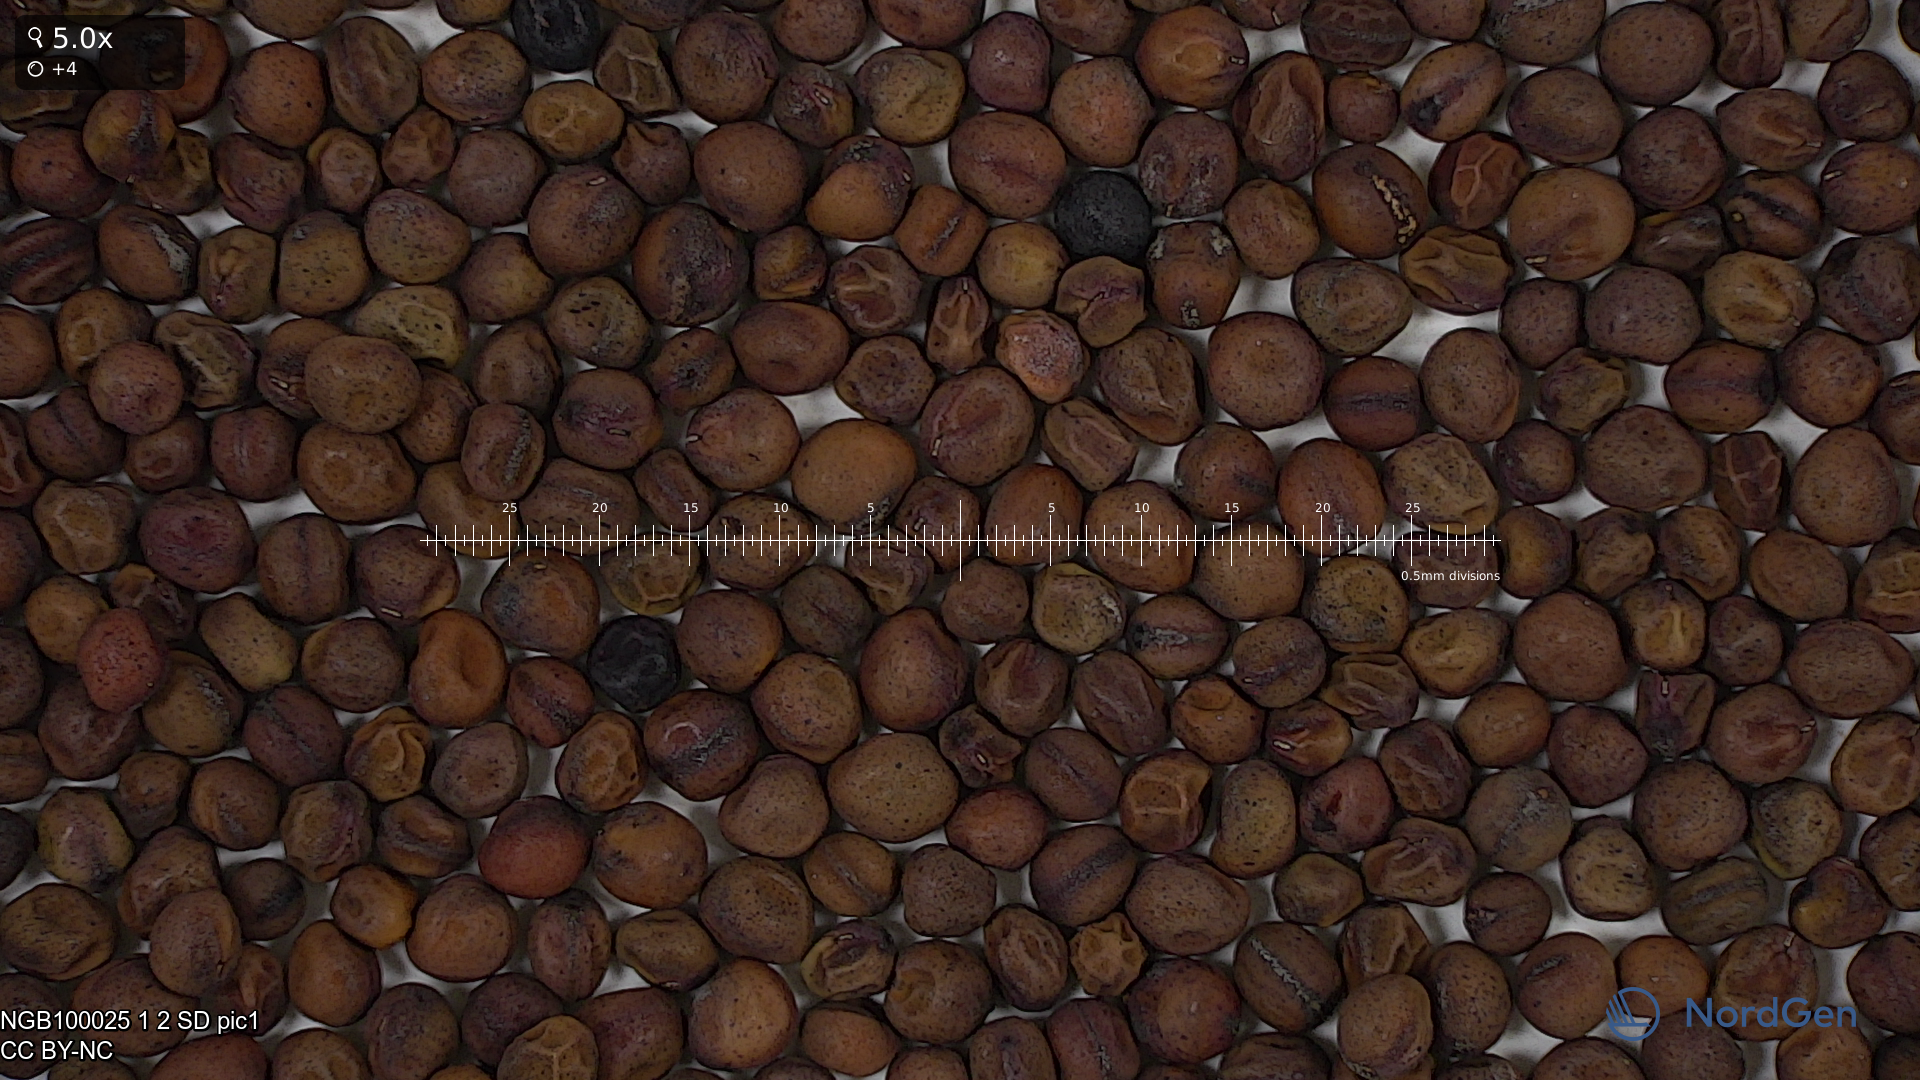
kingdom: Plantae
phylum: Tracheophyta
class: Magnoliopsida
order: Fabales
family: Fabaceae
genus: Lathyrus
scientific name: Lathyrus oleraceus
